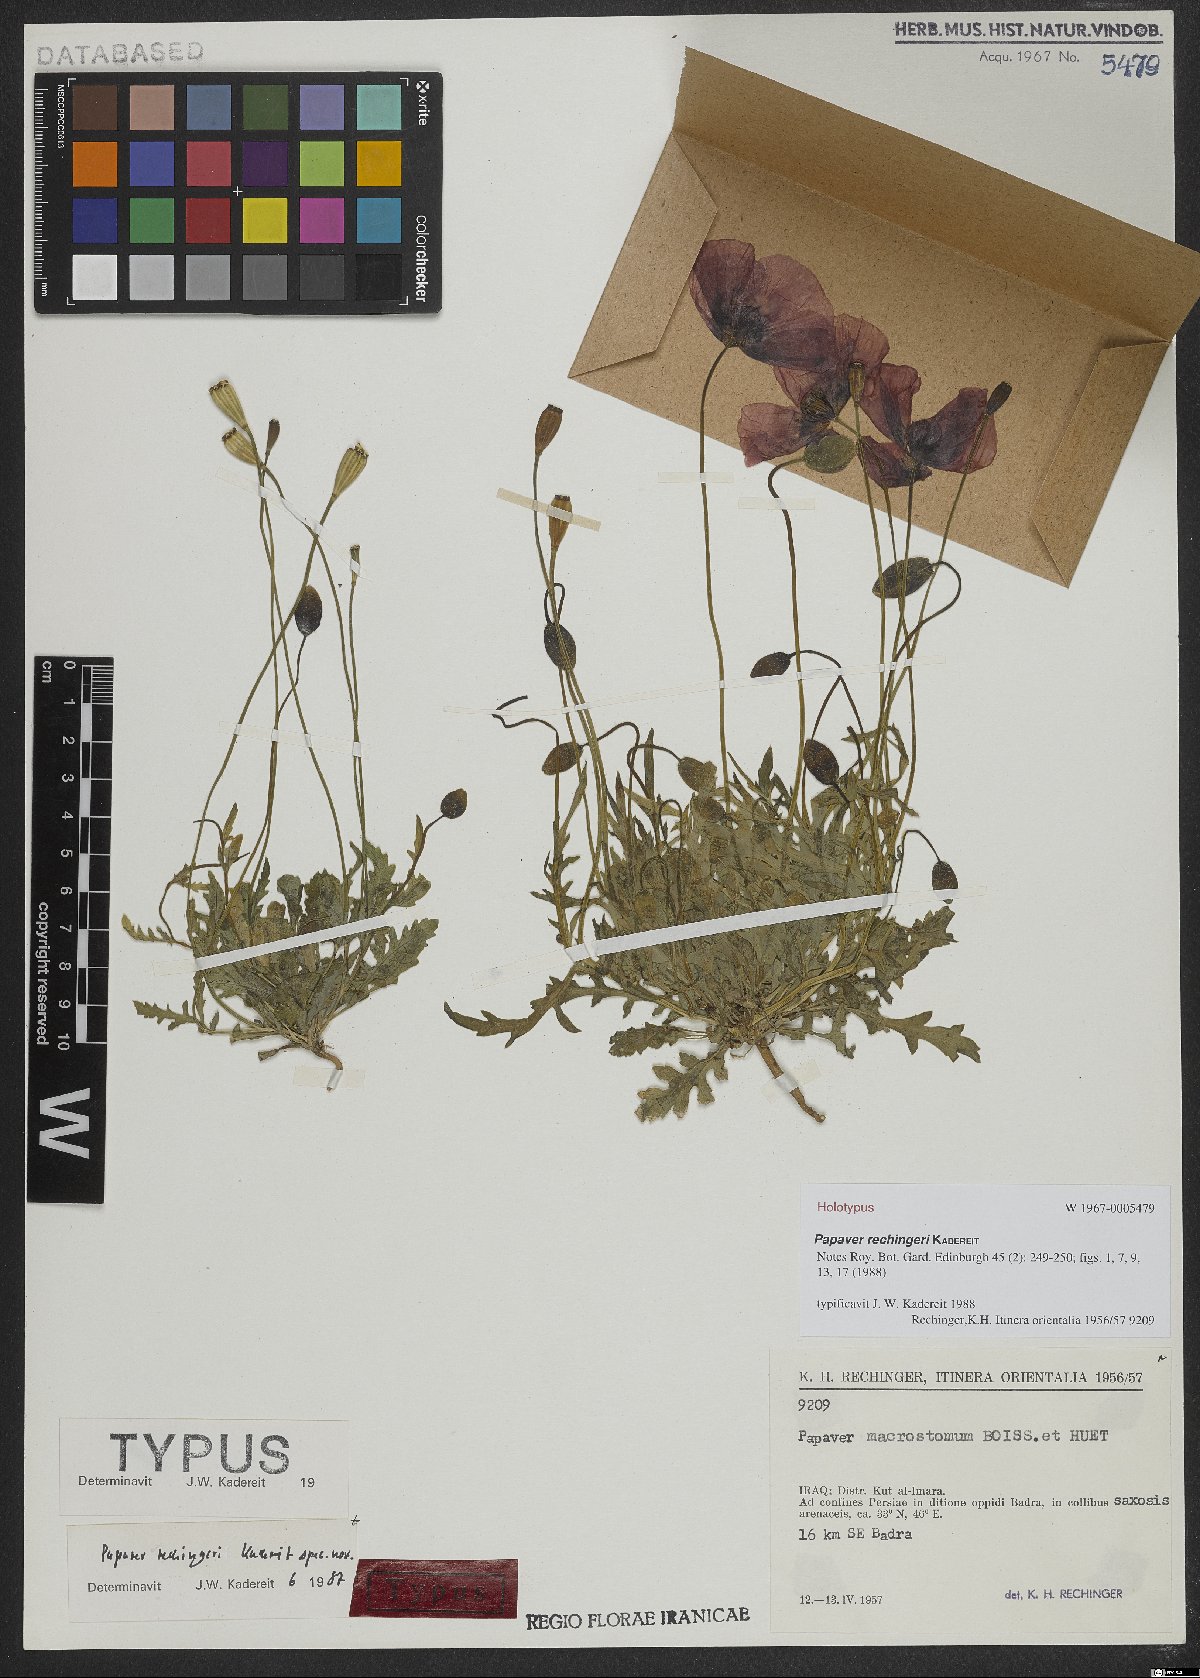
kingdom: Plantae
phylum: Tracheophyta
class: Magnoliopsida
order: Ranunculales
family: Papaveraceae
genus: Papaver
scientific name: Papaver rechingeri
